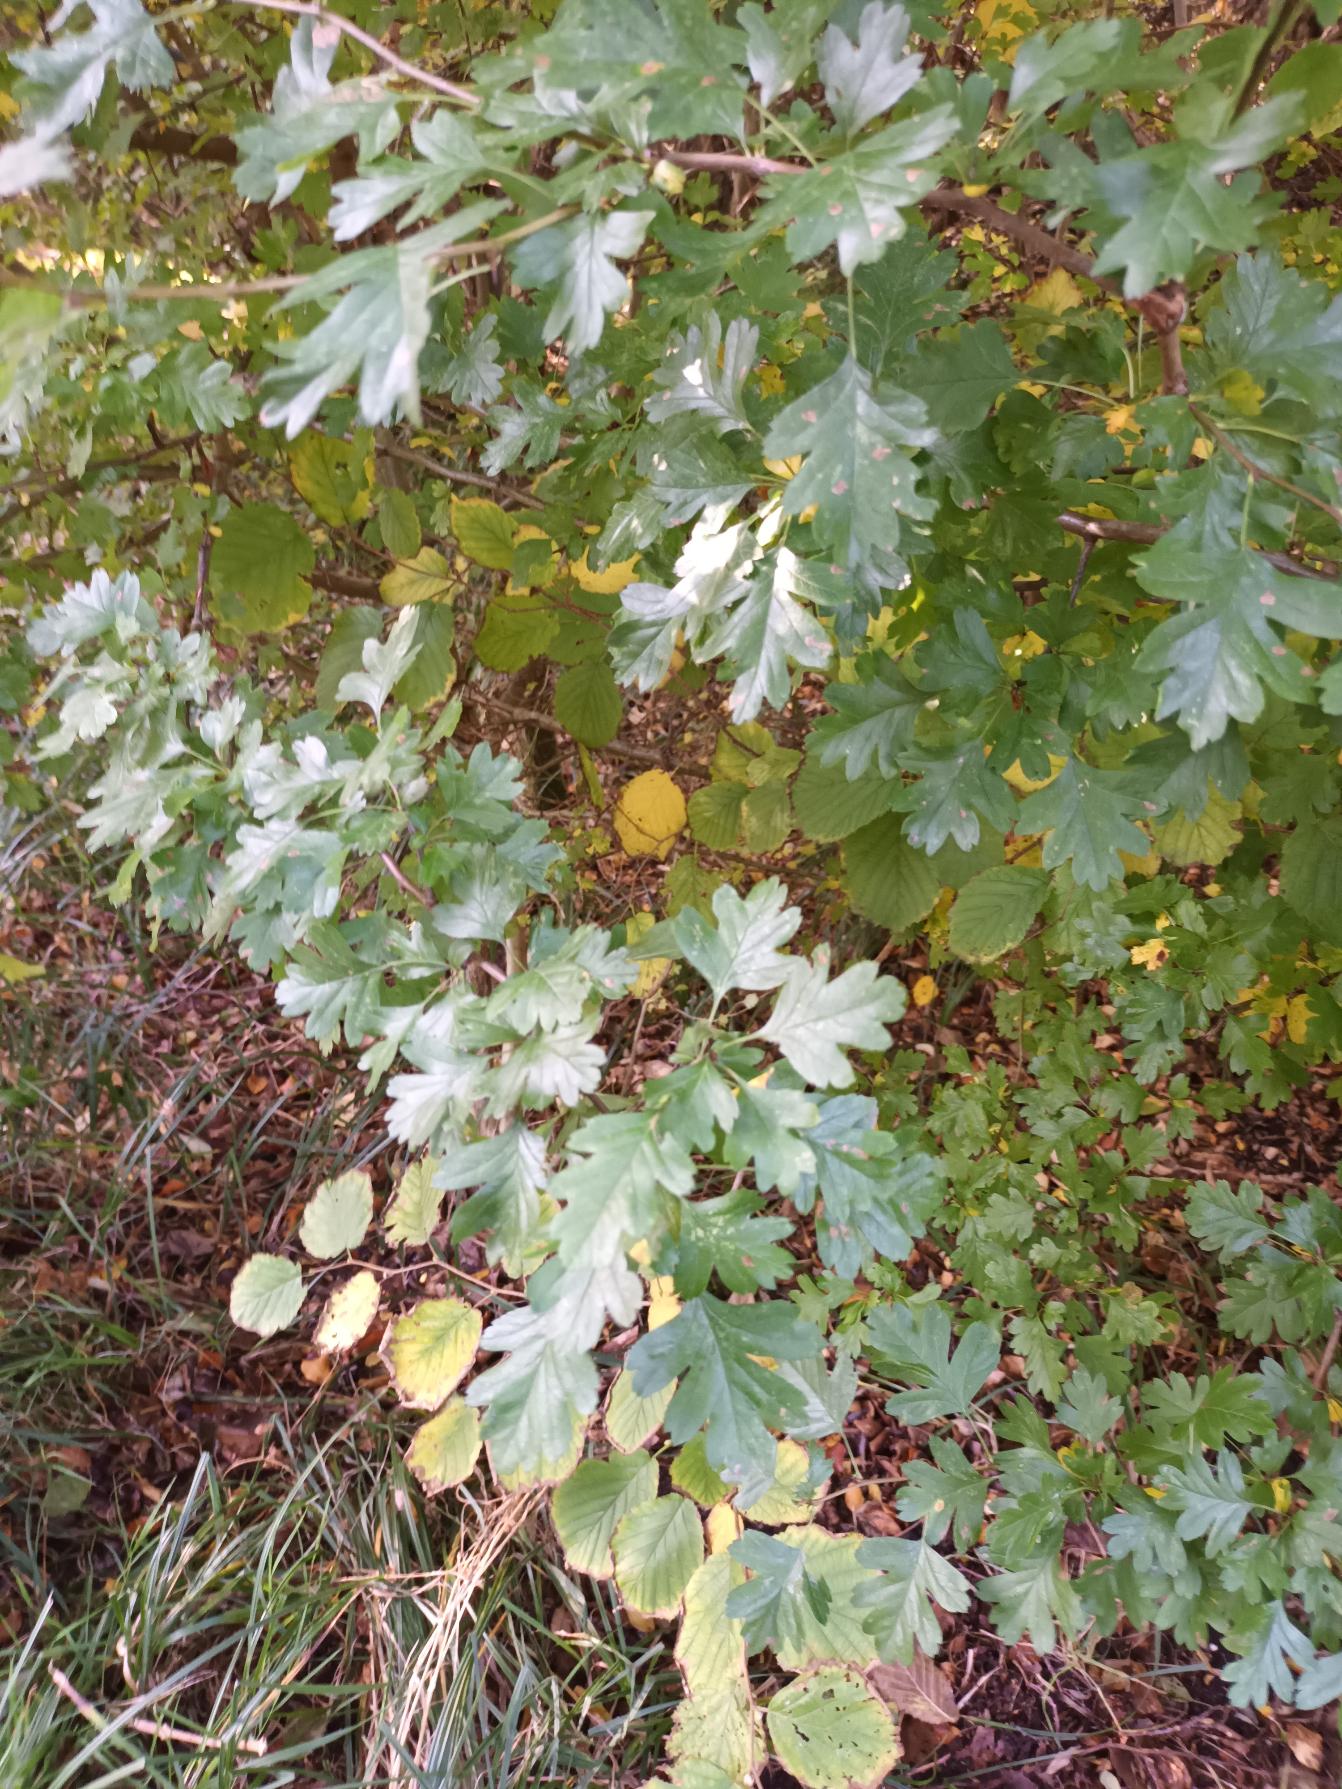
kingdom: Plantae
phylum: Tracheophyta
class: Magnoliopsida
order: Rosales
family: Rosaceae
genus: Crataegus
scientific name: Crataegus monogyna
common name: Engriflet hvidtjørn
